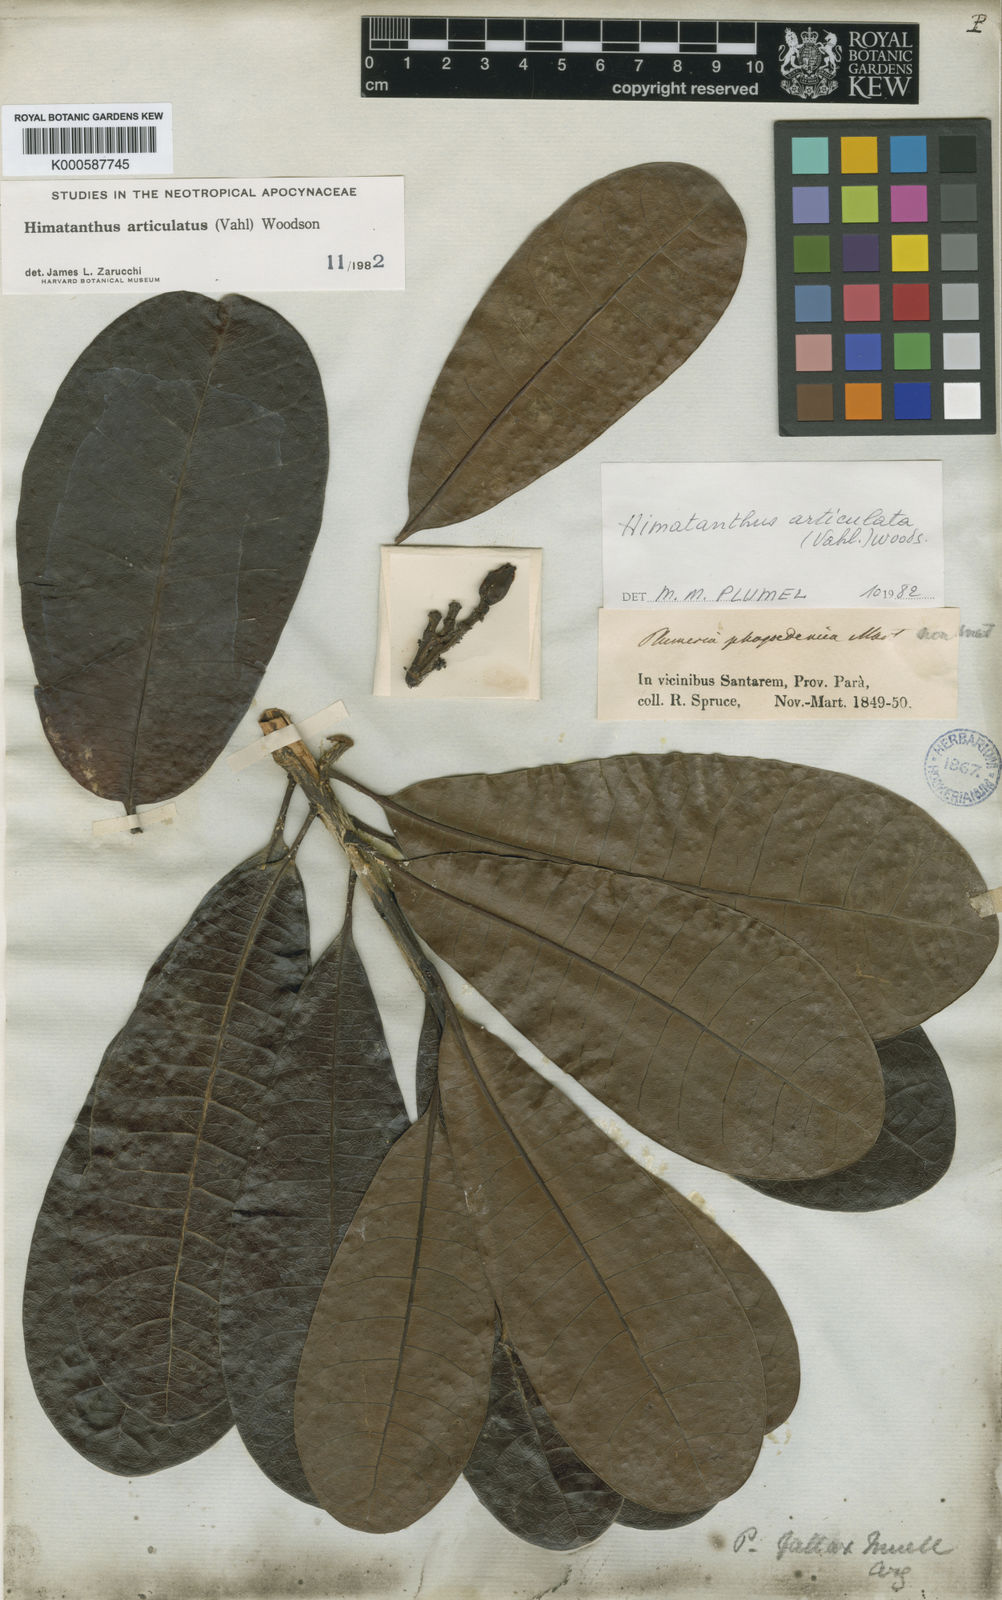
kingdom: Plantae
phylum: Tracheophyta
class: Magnoliopsida
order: Gentianales
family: Apocynaceae
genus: Himatanthus
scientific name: Himatanthus
